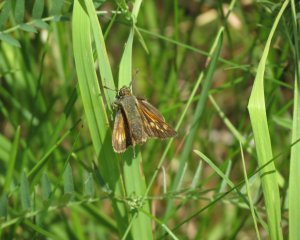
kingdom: Animalia
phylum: Arthropoda
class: Insecta
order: Lepidoptera
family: Hesperiidae
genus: Polites
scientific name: Polites
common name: Long Dash Skipper
